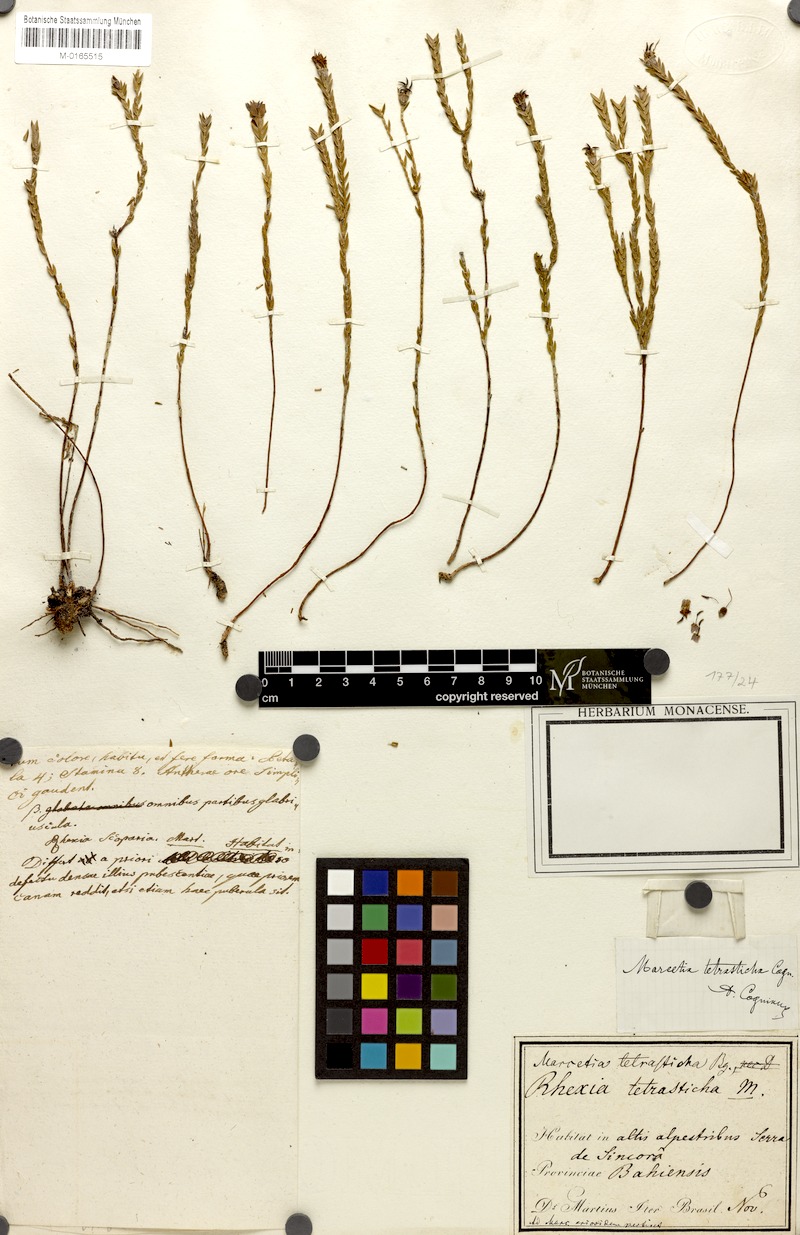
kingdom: Plantae
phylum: Tracheophyta
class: Magnoliopsida
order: Myrtales
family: Melastomataceae
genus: Marcetia
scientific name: Marcetia ericoides
